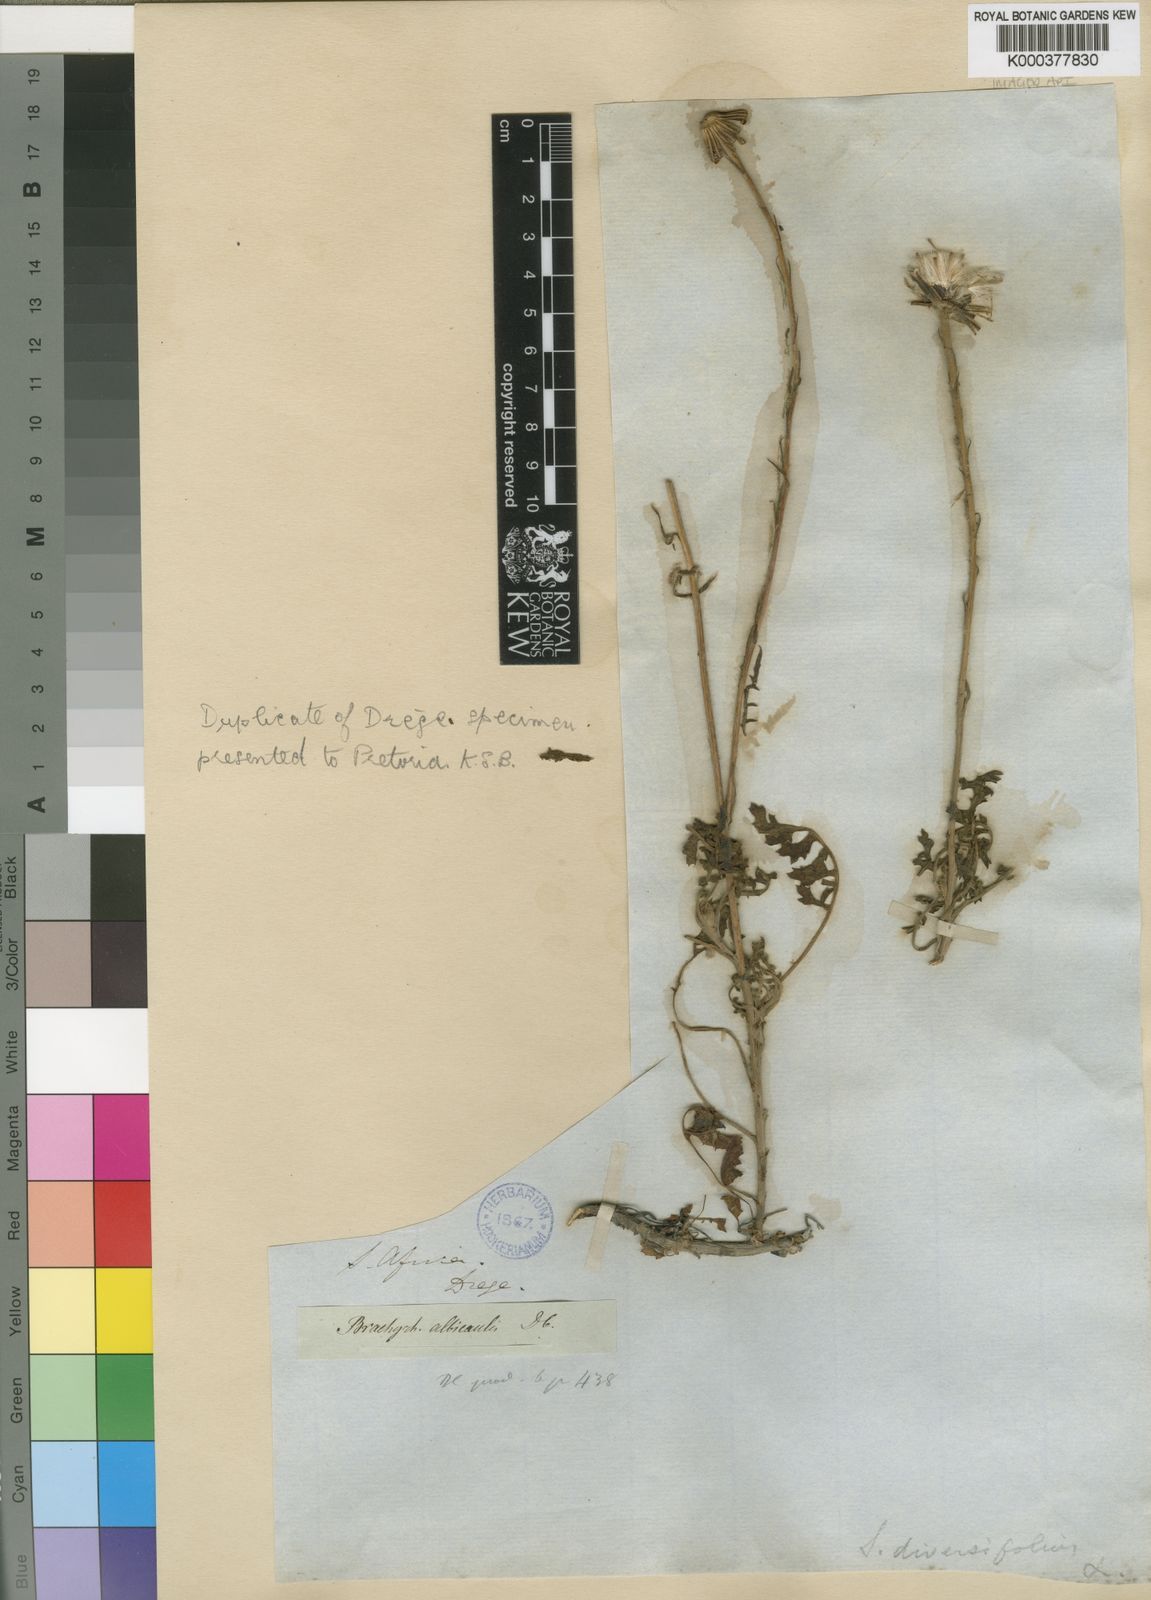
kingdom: Plantae
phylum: Tracheophyta
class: Magnoliopsida
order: Asterales
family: Asteraceae
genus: Senecio
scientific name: Senecio
